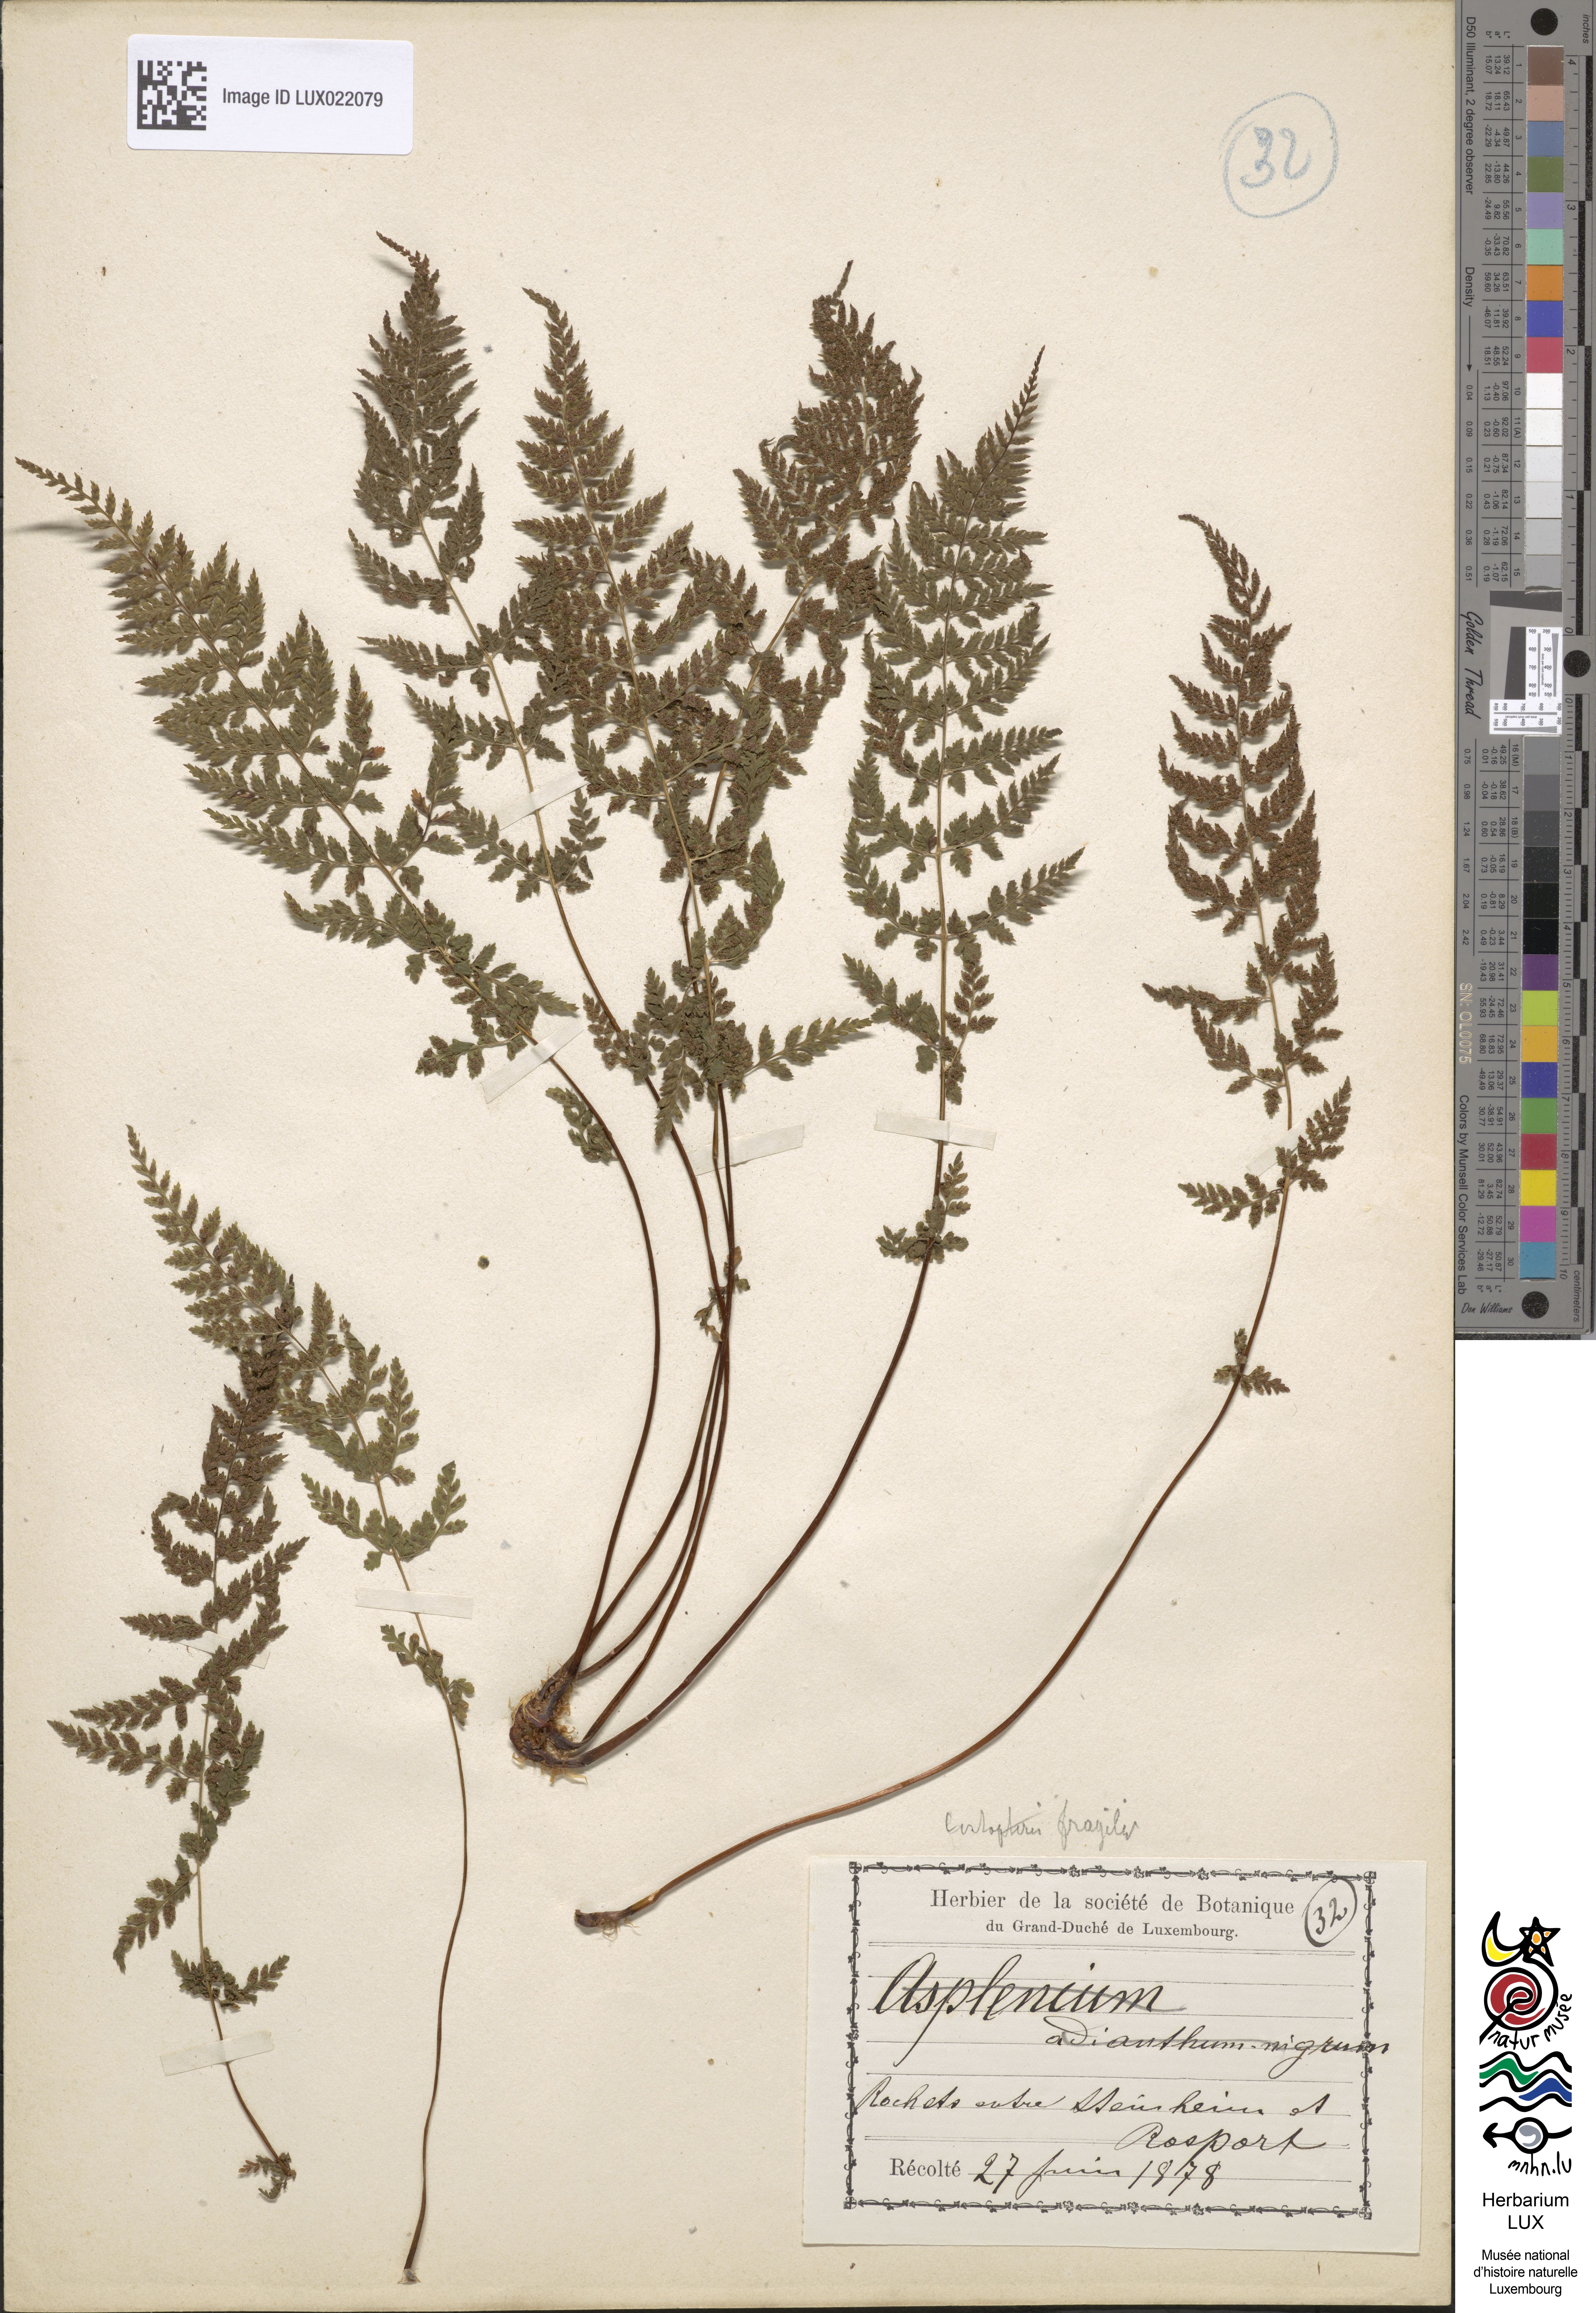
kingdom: Plantae
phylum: Tracheophyta
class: Polypodiopsida
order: Polypodiales
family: Cystopteridaceae
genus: Cystopteris
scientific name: Cystopteris fragilis
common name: Brittle bladder fern
